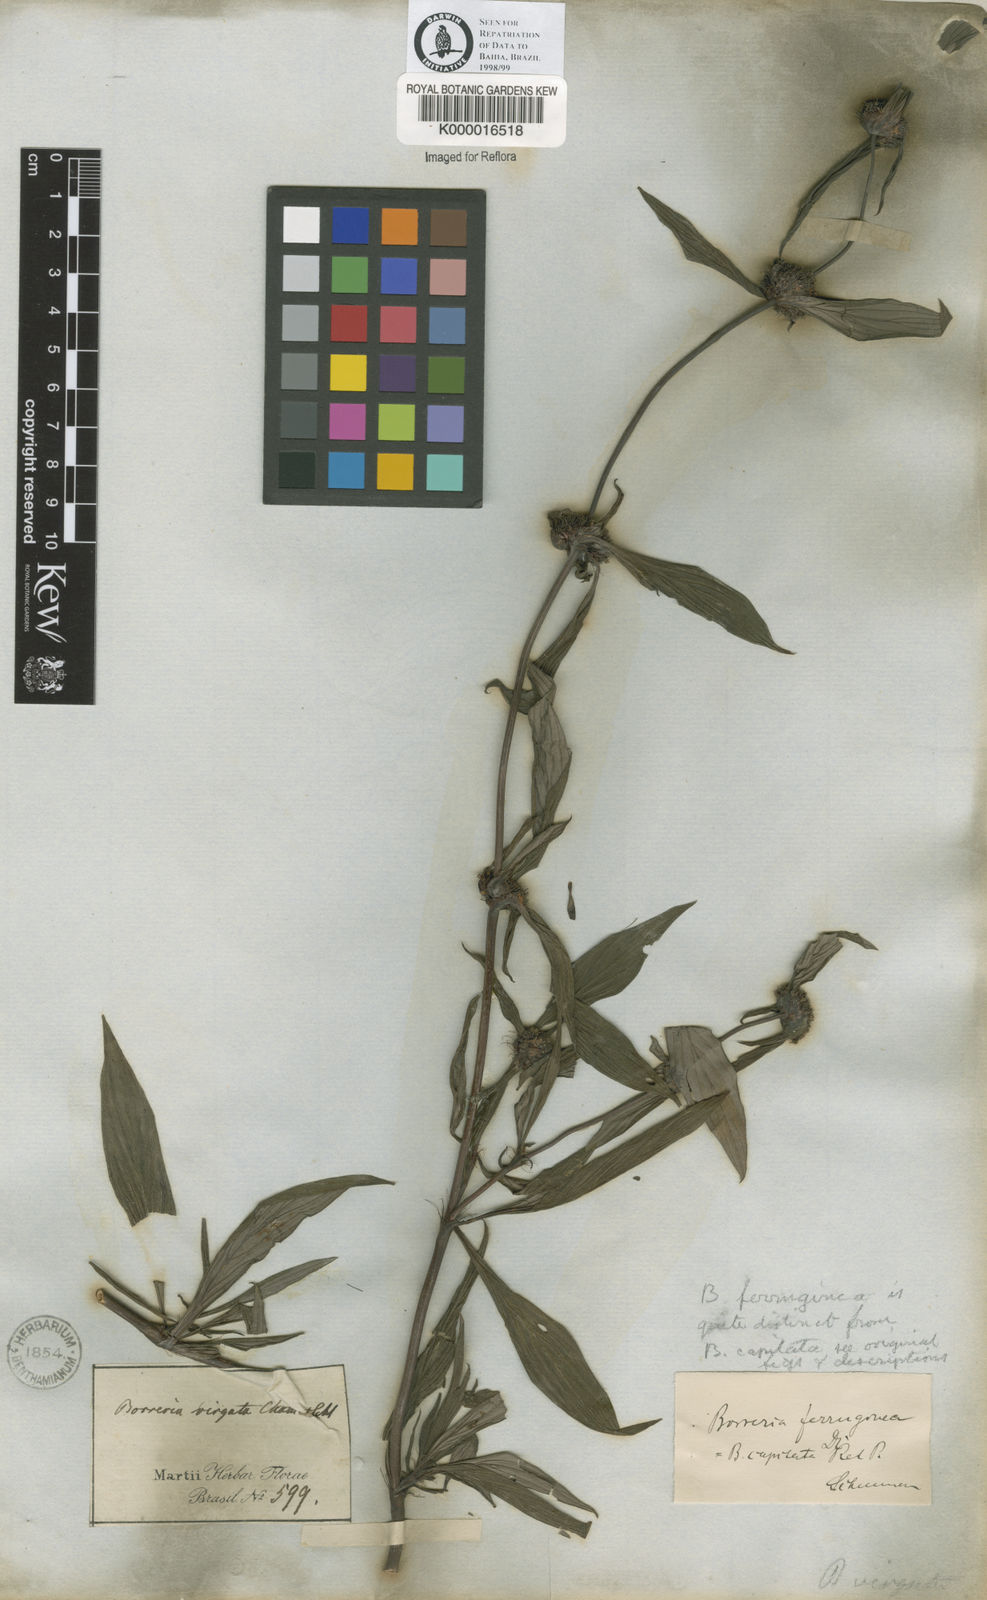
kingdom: Plantae
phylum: Tracheophyta
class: Magnoliopsida
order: Gentianales
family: Rubiaceae
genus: Spermacoce
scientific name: Spermacoce capitata
